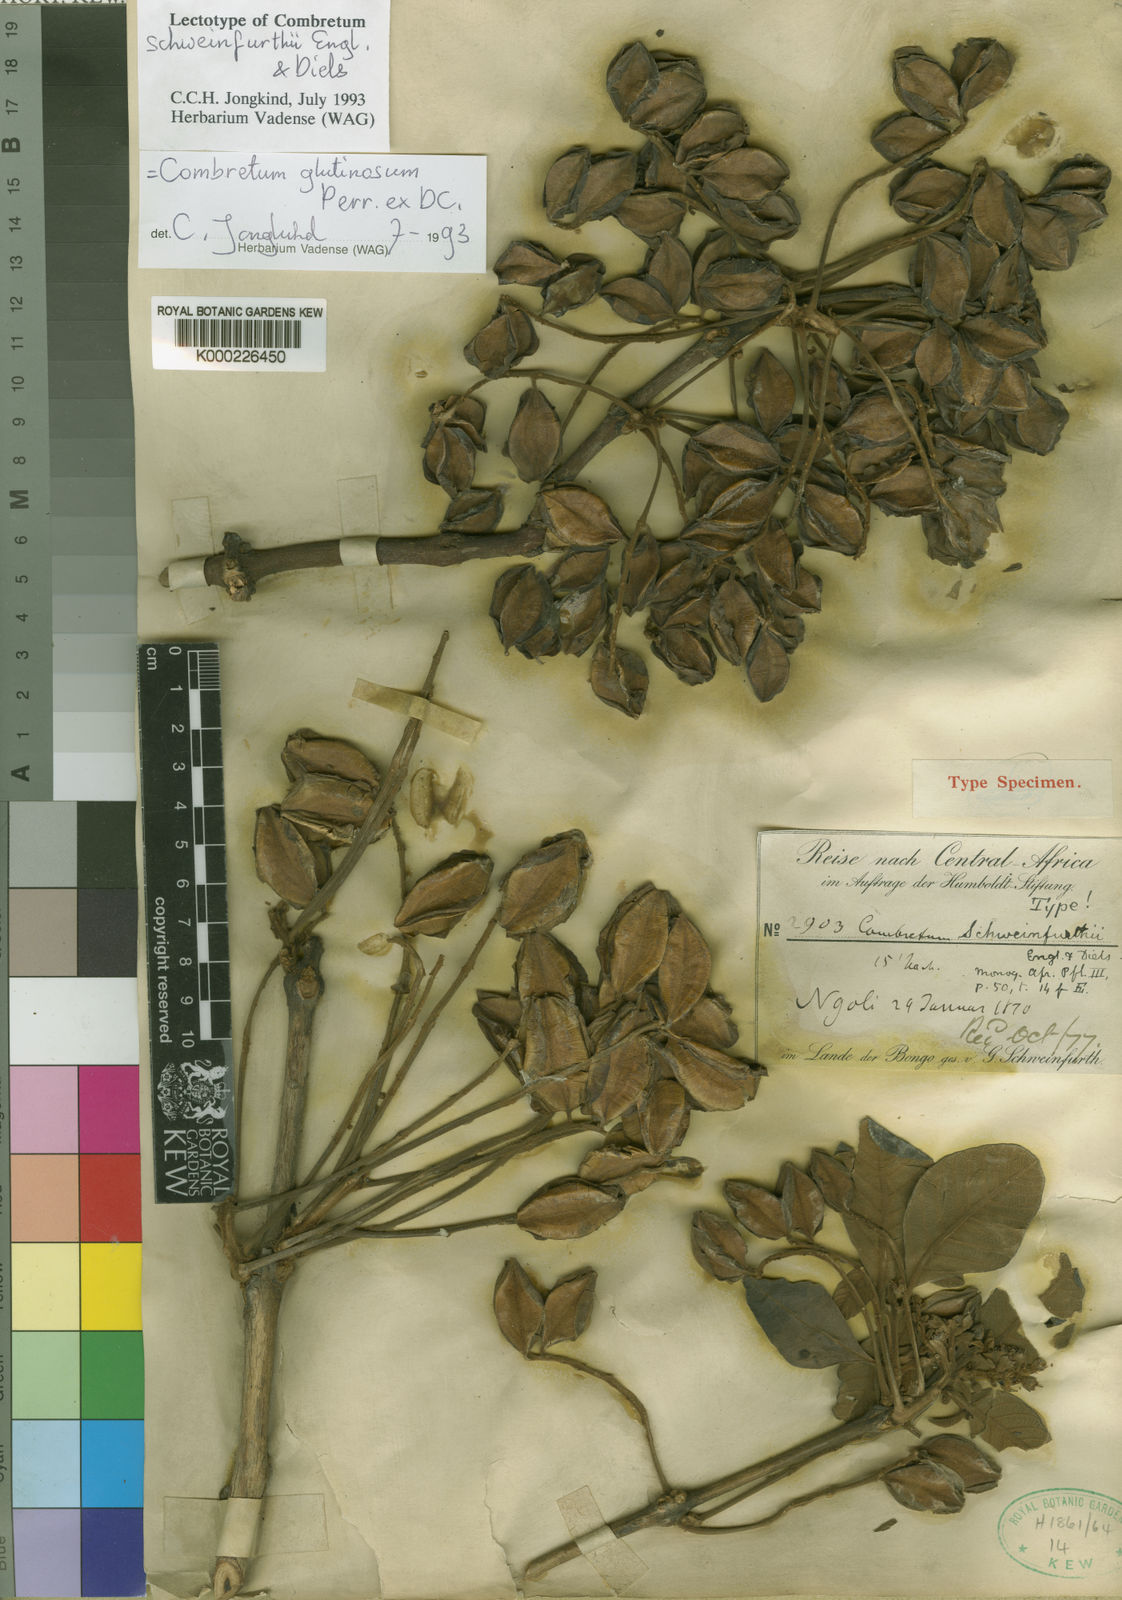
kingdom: Plantae
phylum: Tracheophyta
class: Magnoliopsida
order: Myrtales
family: Combretaceae
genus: Combretum
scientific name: Combretum schweinfurthii
